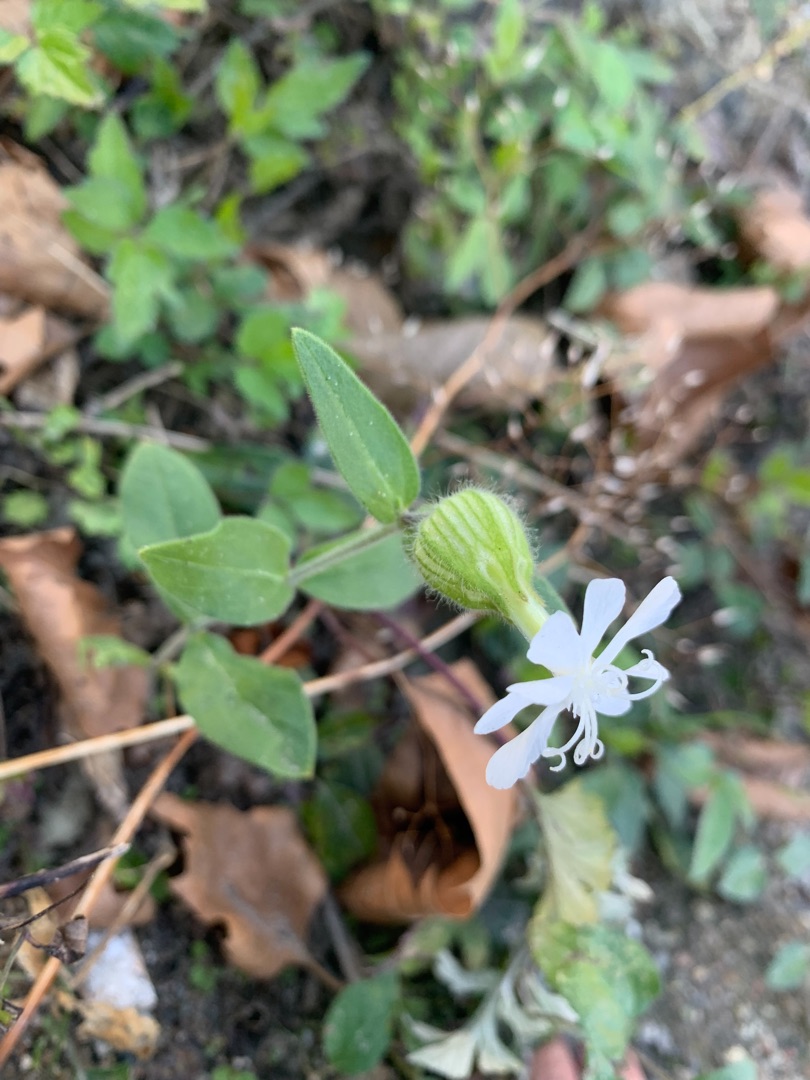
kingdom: Plantae
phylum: Tracheophyta
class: Magnoliopsida
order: Caryophyllales
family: Caryophyllaceae
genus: Silene
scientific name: Silene latifolia
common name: Aftenpragtstjerne
